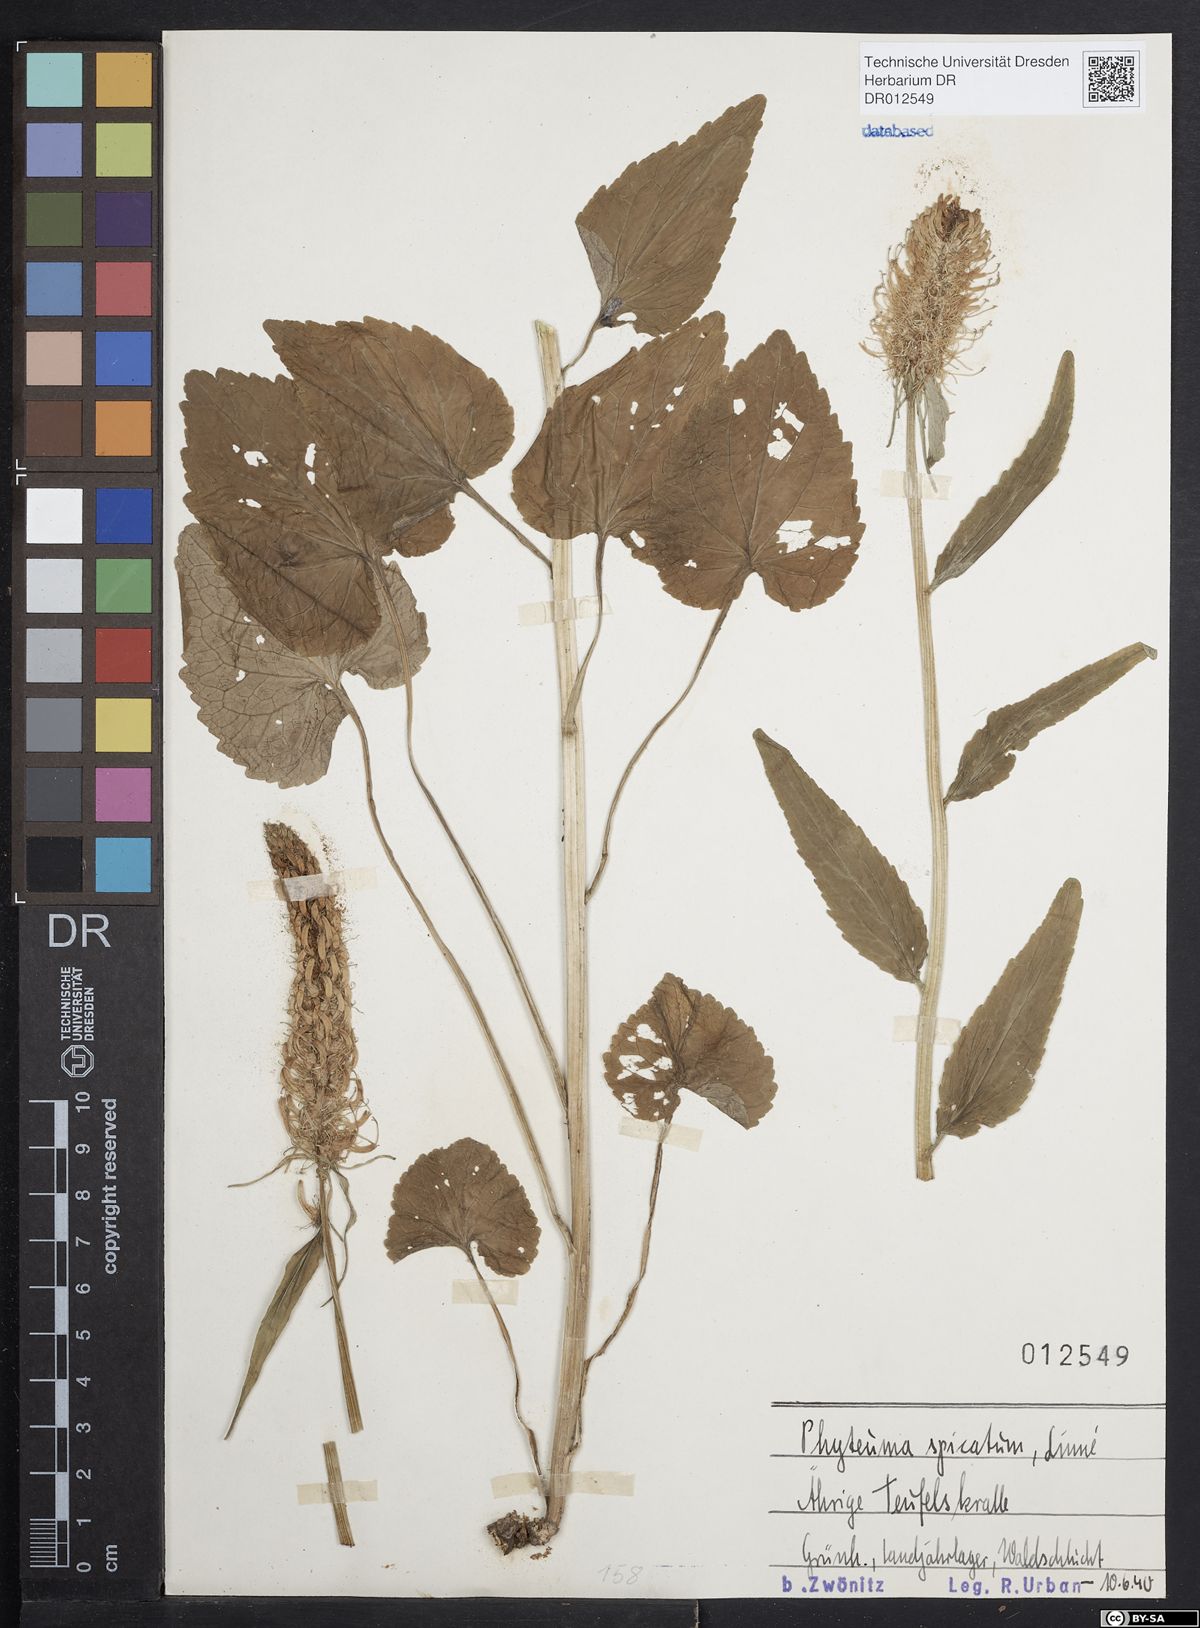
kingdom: Plantae
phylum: Tracheophyta
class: Magnoliopsida
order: Asterales
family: Campanulaceae
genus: Phyteuma
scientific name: Phyteuma spicatum
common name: Spiked rampion
